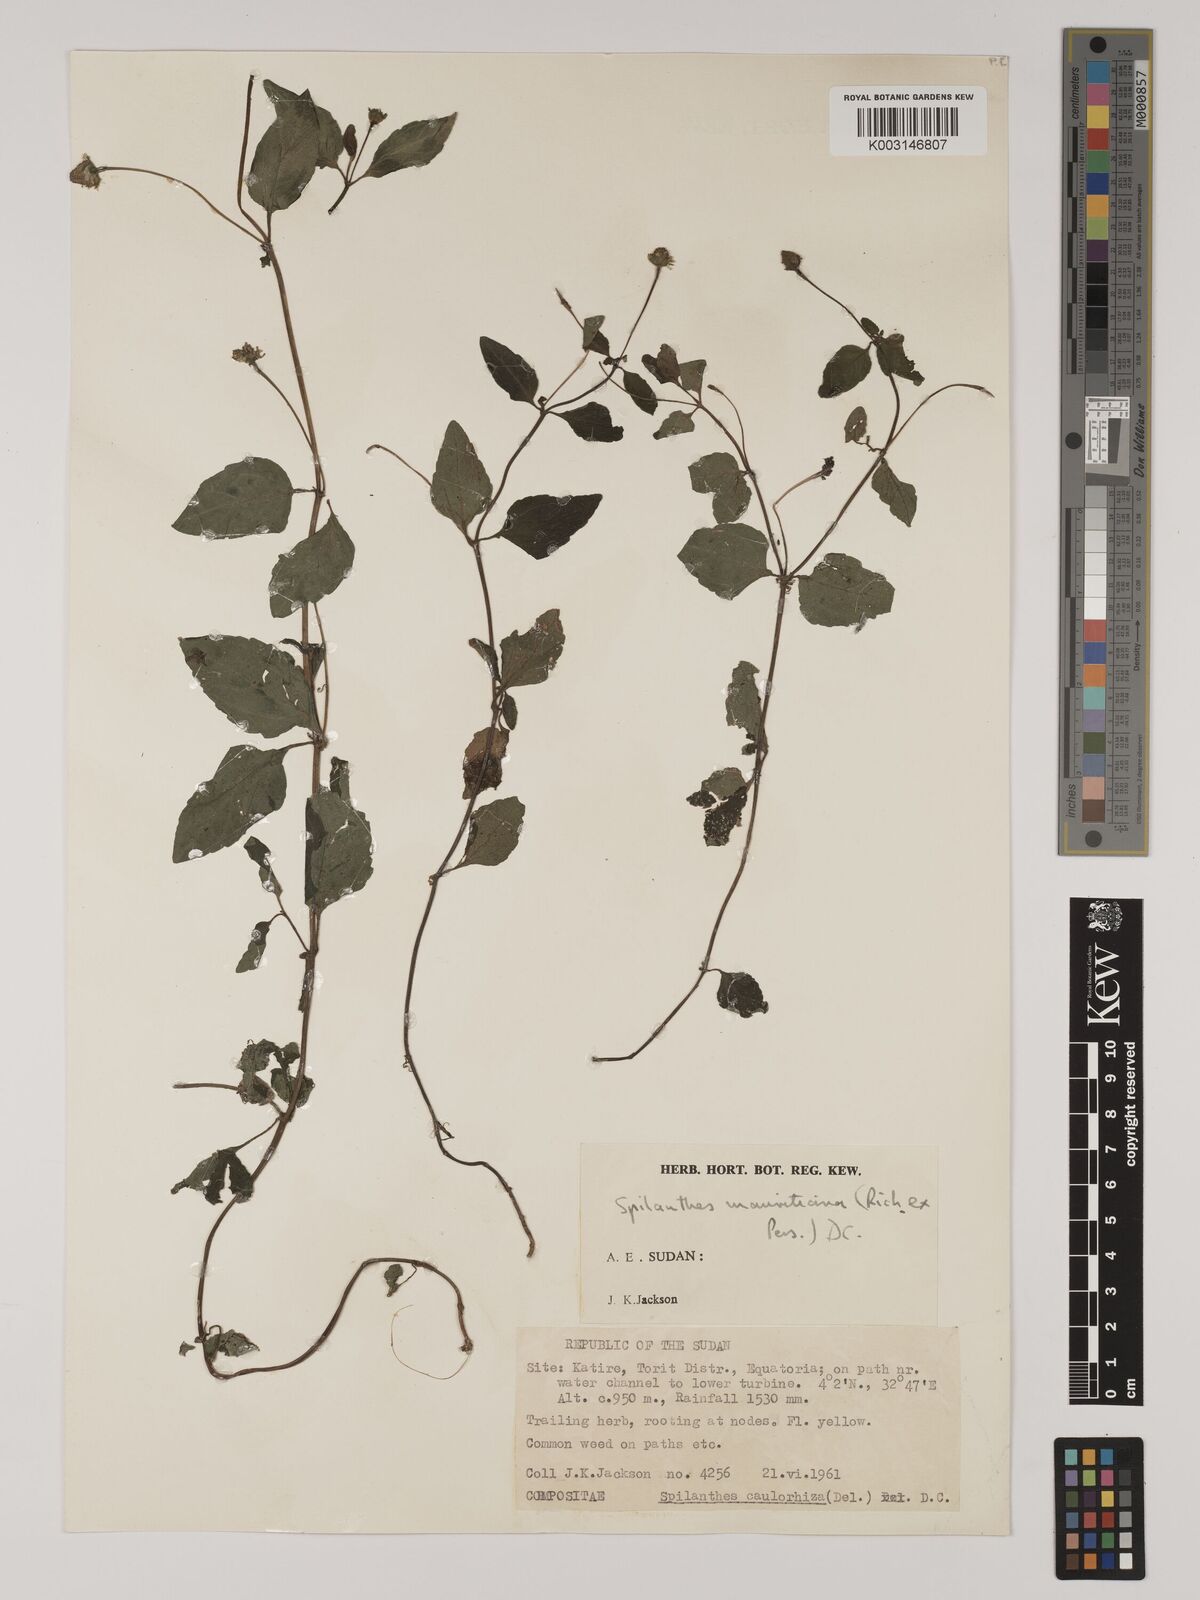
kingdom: Plantae
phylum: Tracheophyta
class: Magnoliopsida
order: Asterales
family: Asteraceae
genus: Blainvillea
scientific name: Blainvillea acmella
